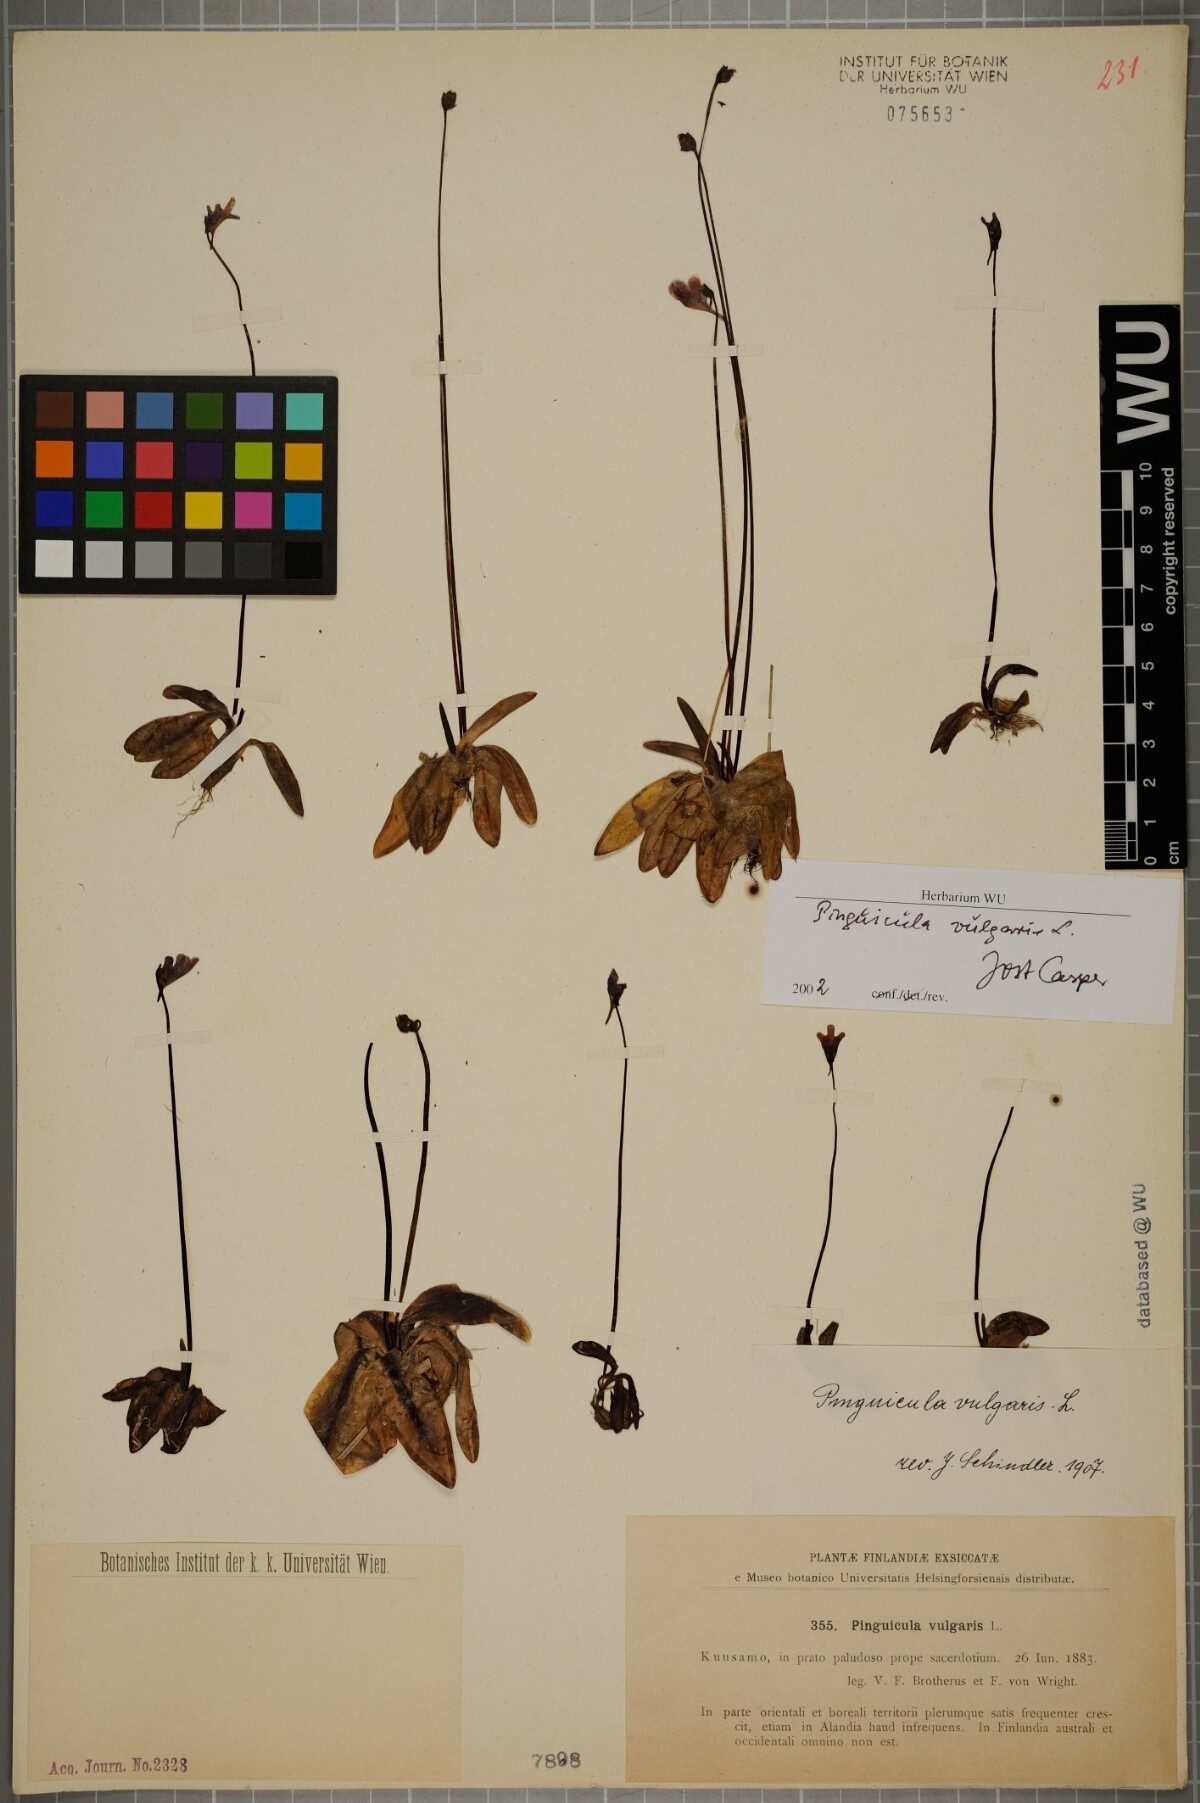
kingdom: Plantae
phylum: Tracheophyta
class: Magnoliopsida
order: Lamiales
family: Lentibulariaceae
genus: Pinguicula
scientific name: Pinguicula vulgaris
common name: Common butterwort
